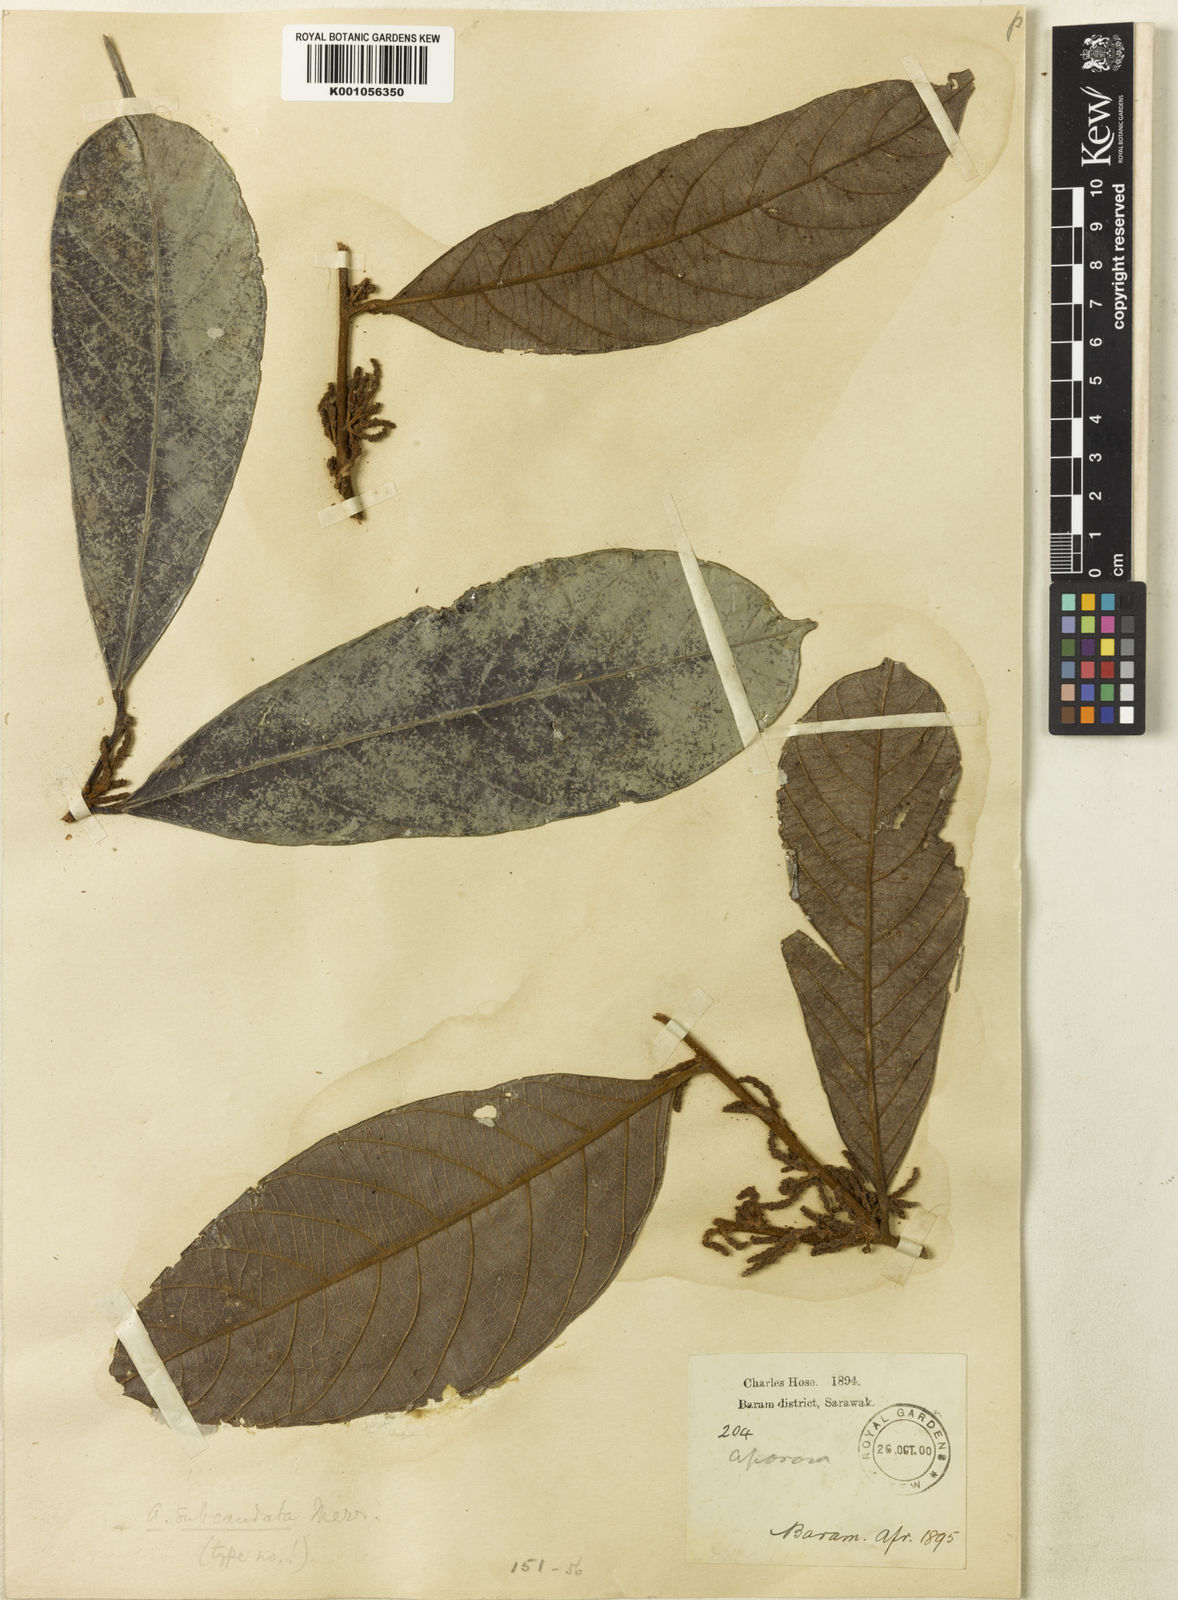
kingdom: Plantae
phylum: Tracheophyta
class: Magnoliopsida
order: Malpighiales
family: Phyllanthaceae
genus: Aporosa
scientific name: Aporosa subcaudata
